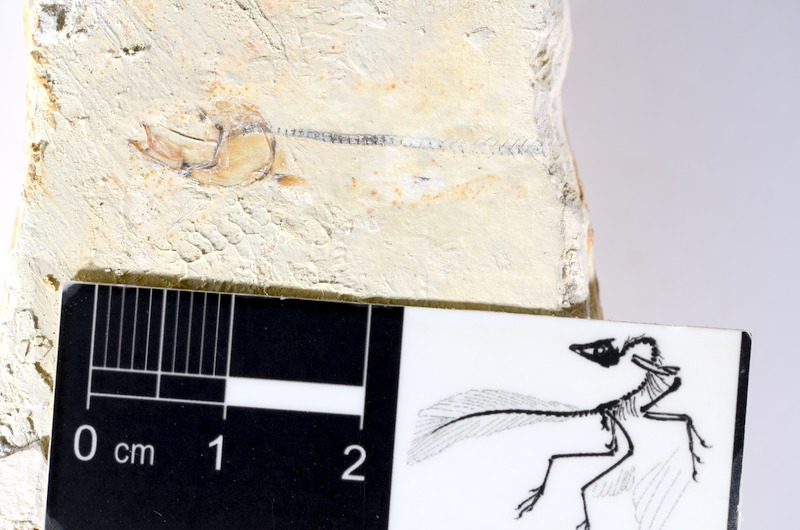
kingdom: Animalia
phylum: Chordata
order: Salmoniformes
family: Orthogonikleithridae
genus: Orthogonikleithrus
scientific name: Orthogonikleithrus hoelli
